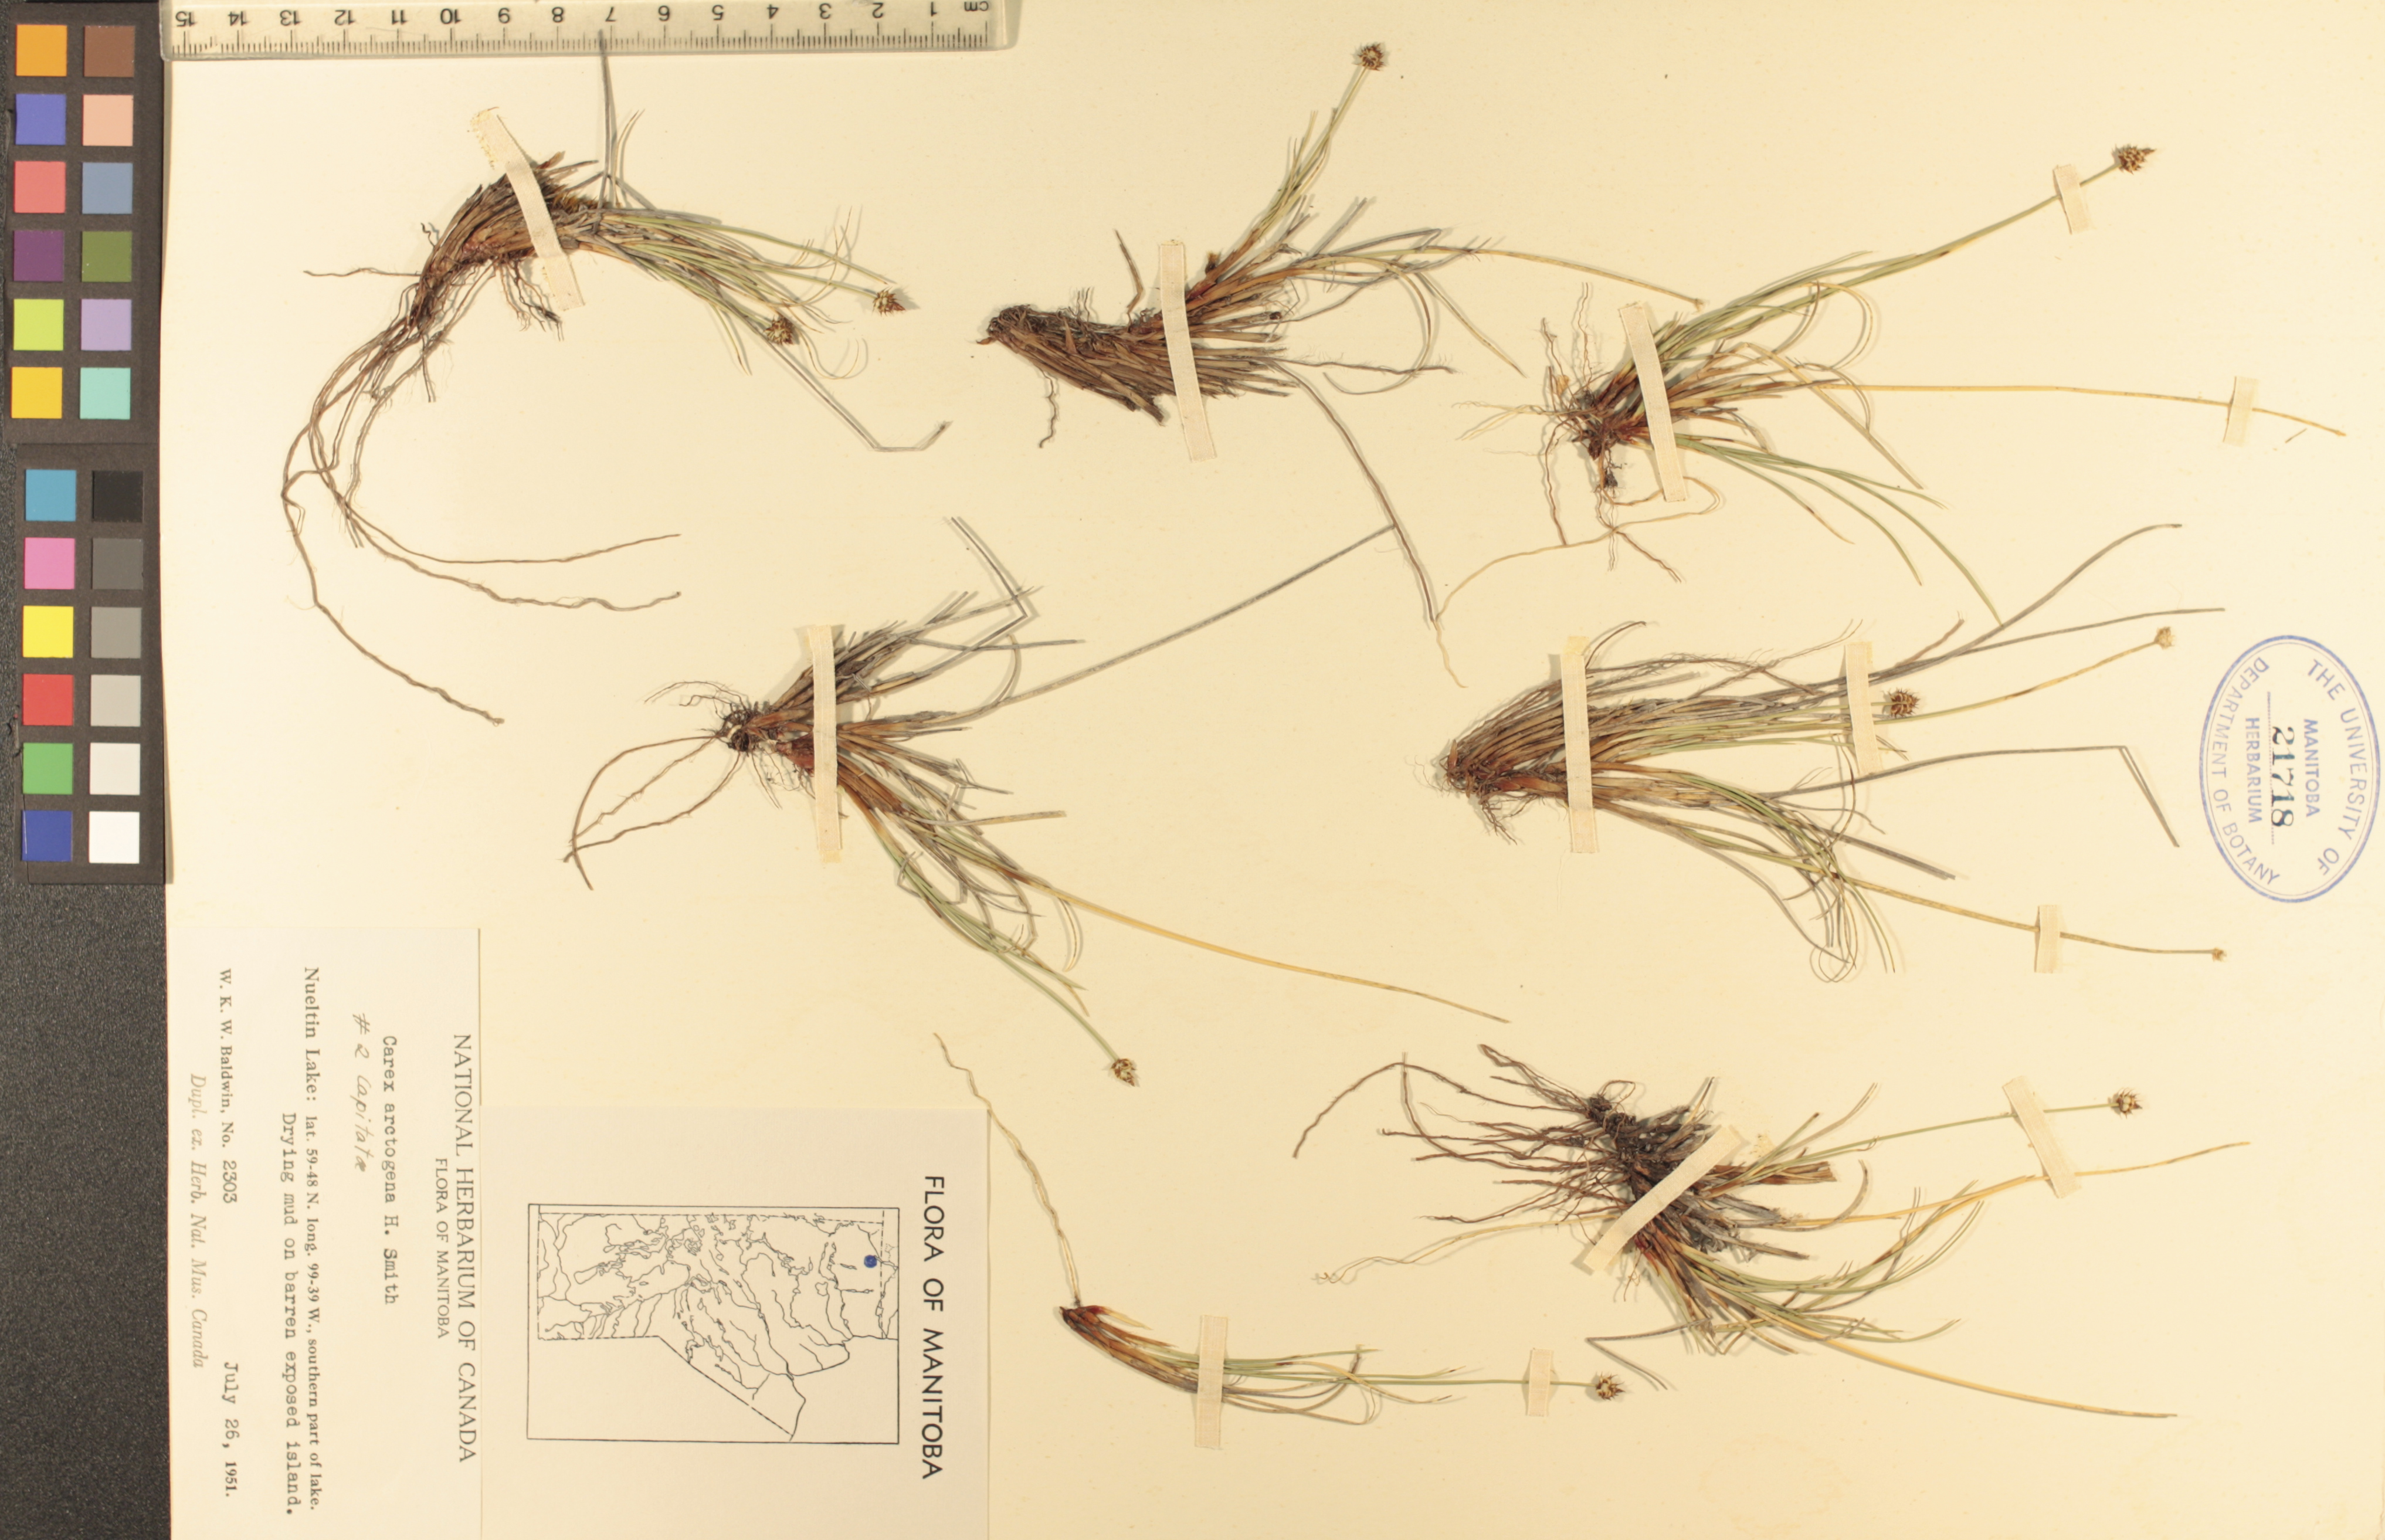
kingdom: Plantae
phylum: Tracheophyta
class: Liliopsida
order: Poales
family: Cyperaceae
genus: Carex
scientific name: Carex arctogena
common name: Black sedge
